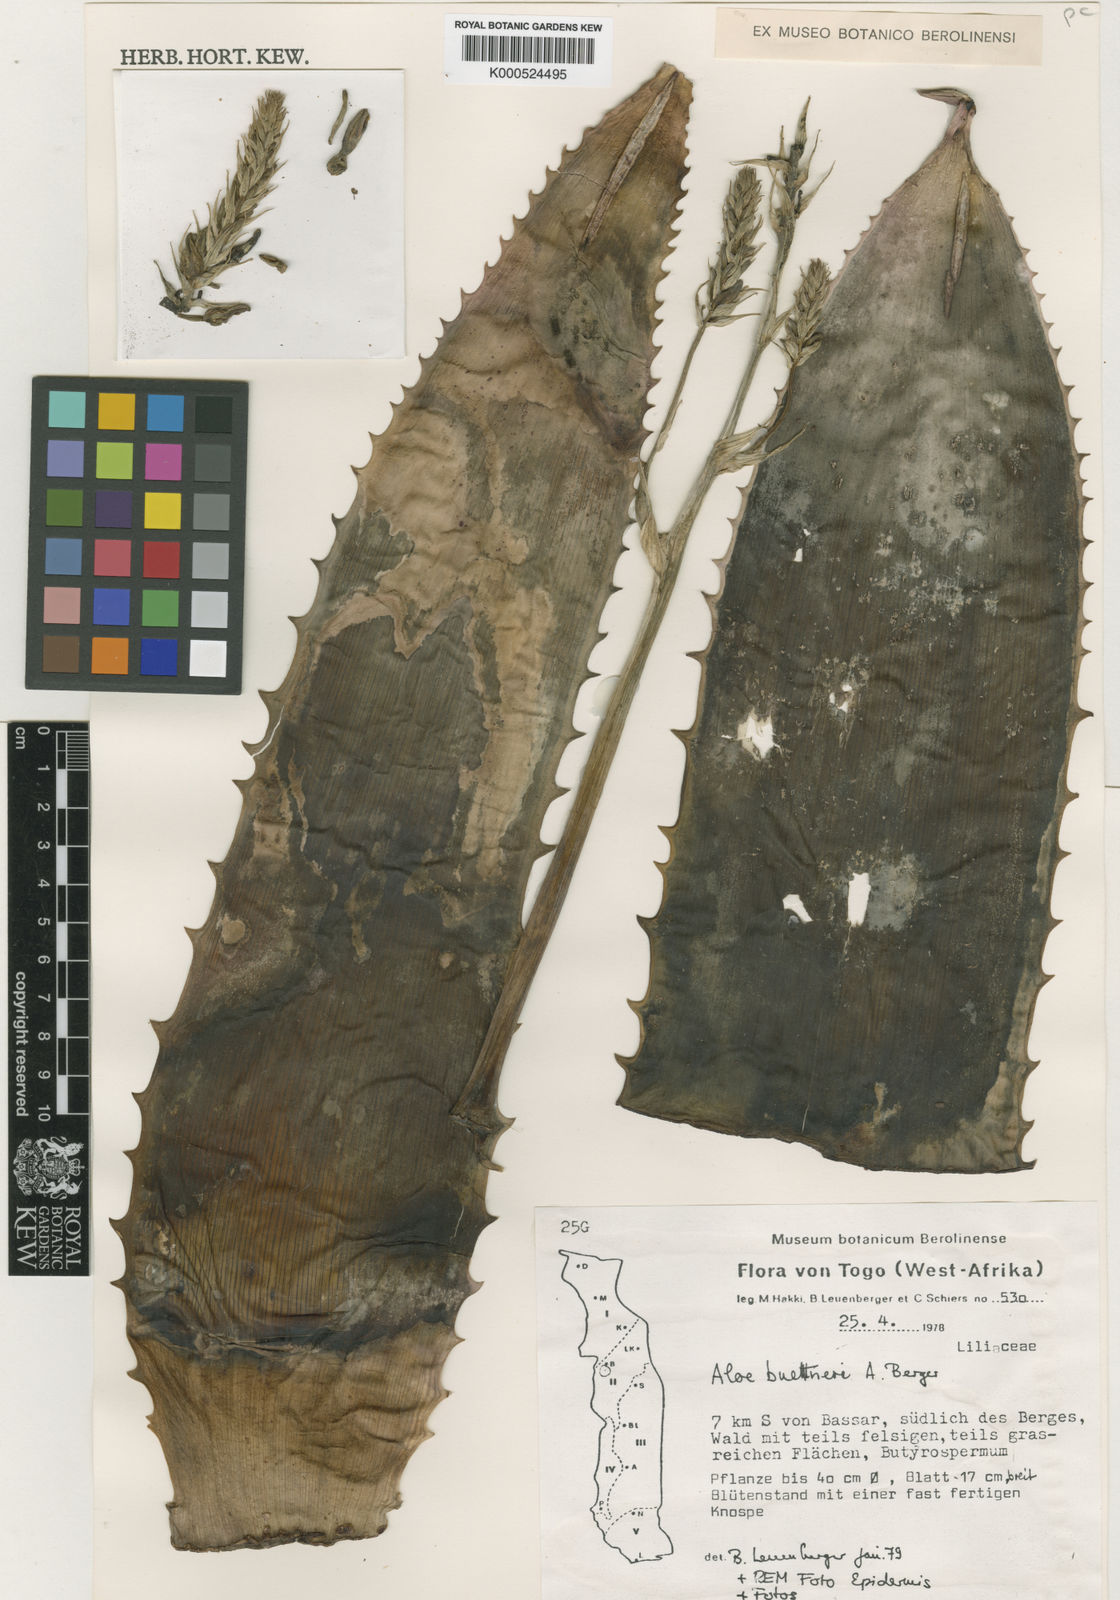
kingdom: Plantae
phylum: Tracheophyta
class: Liliopsida
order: Asparagales
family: Asphodelaceae
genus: Aloe
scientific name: Aloe buettneri
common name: West african aloe
